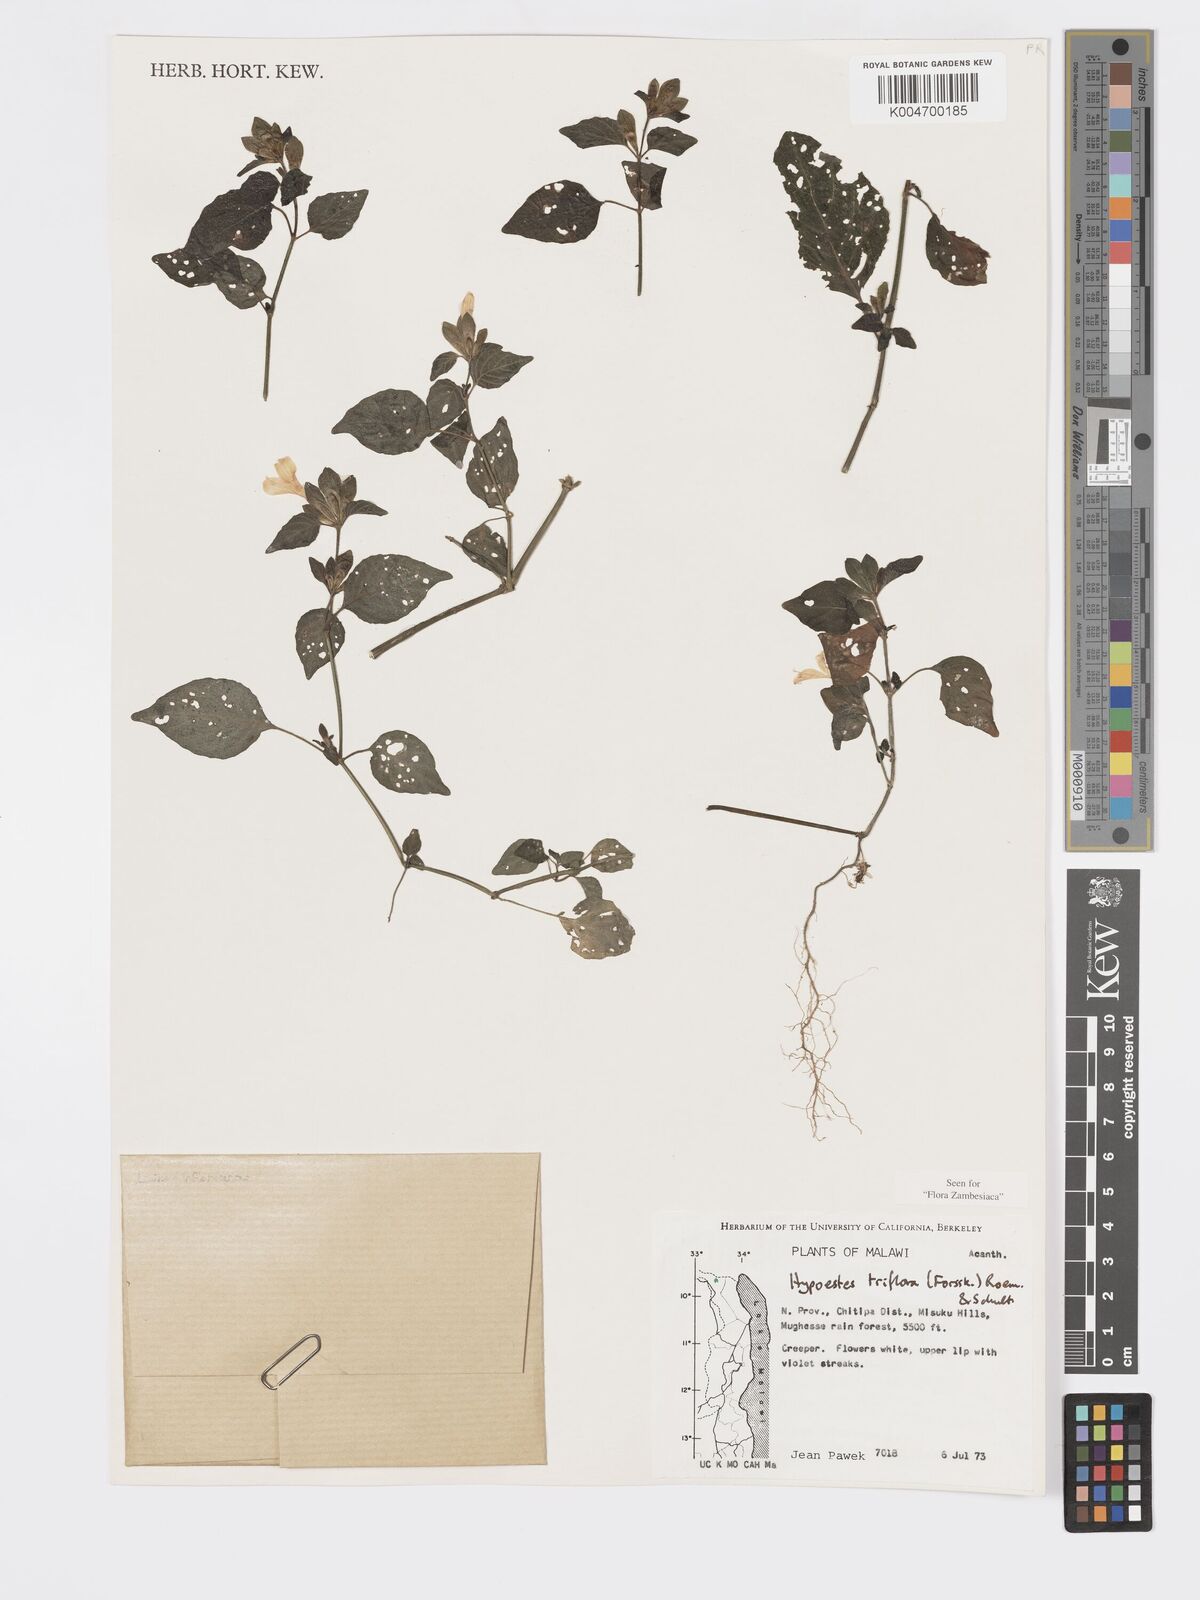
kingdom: Plantae
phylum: Tracheophyta
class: Magnoliopsida
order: Lamiales
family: Acanthaceae
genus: Hypoestes
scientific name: Hypoestes triflora
